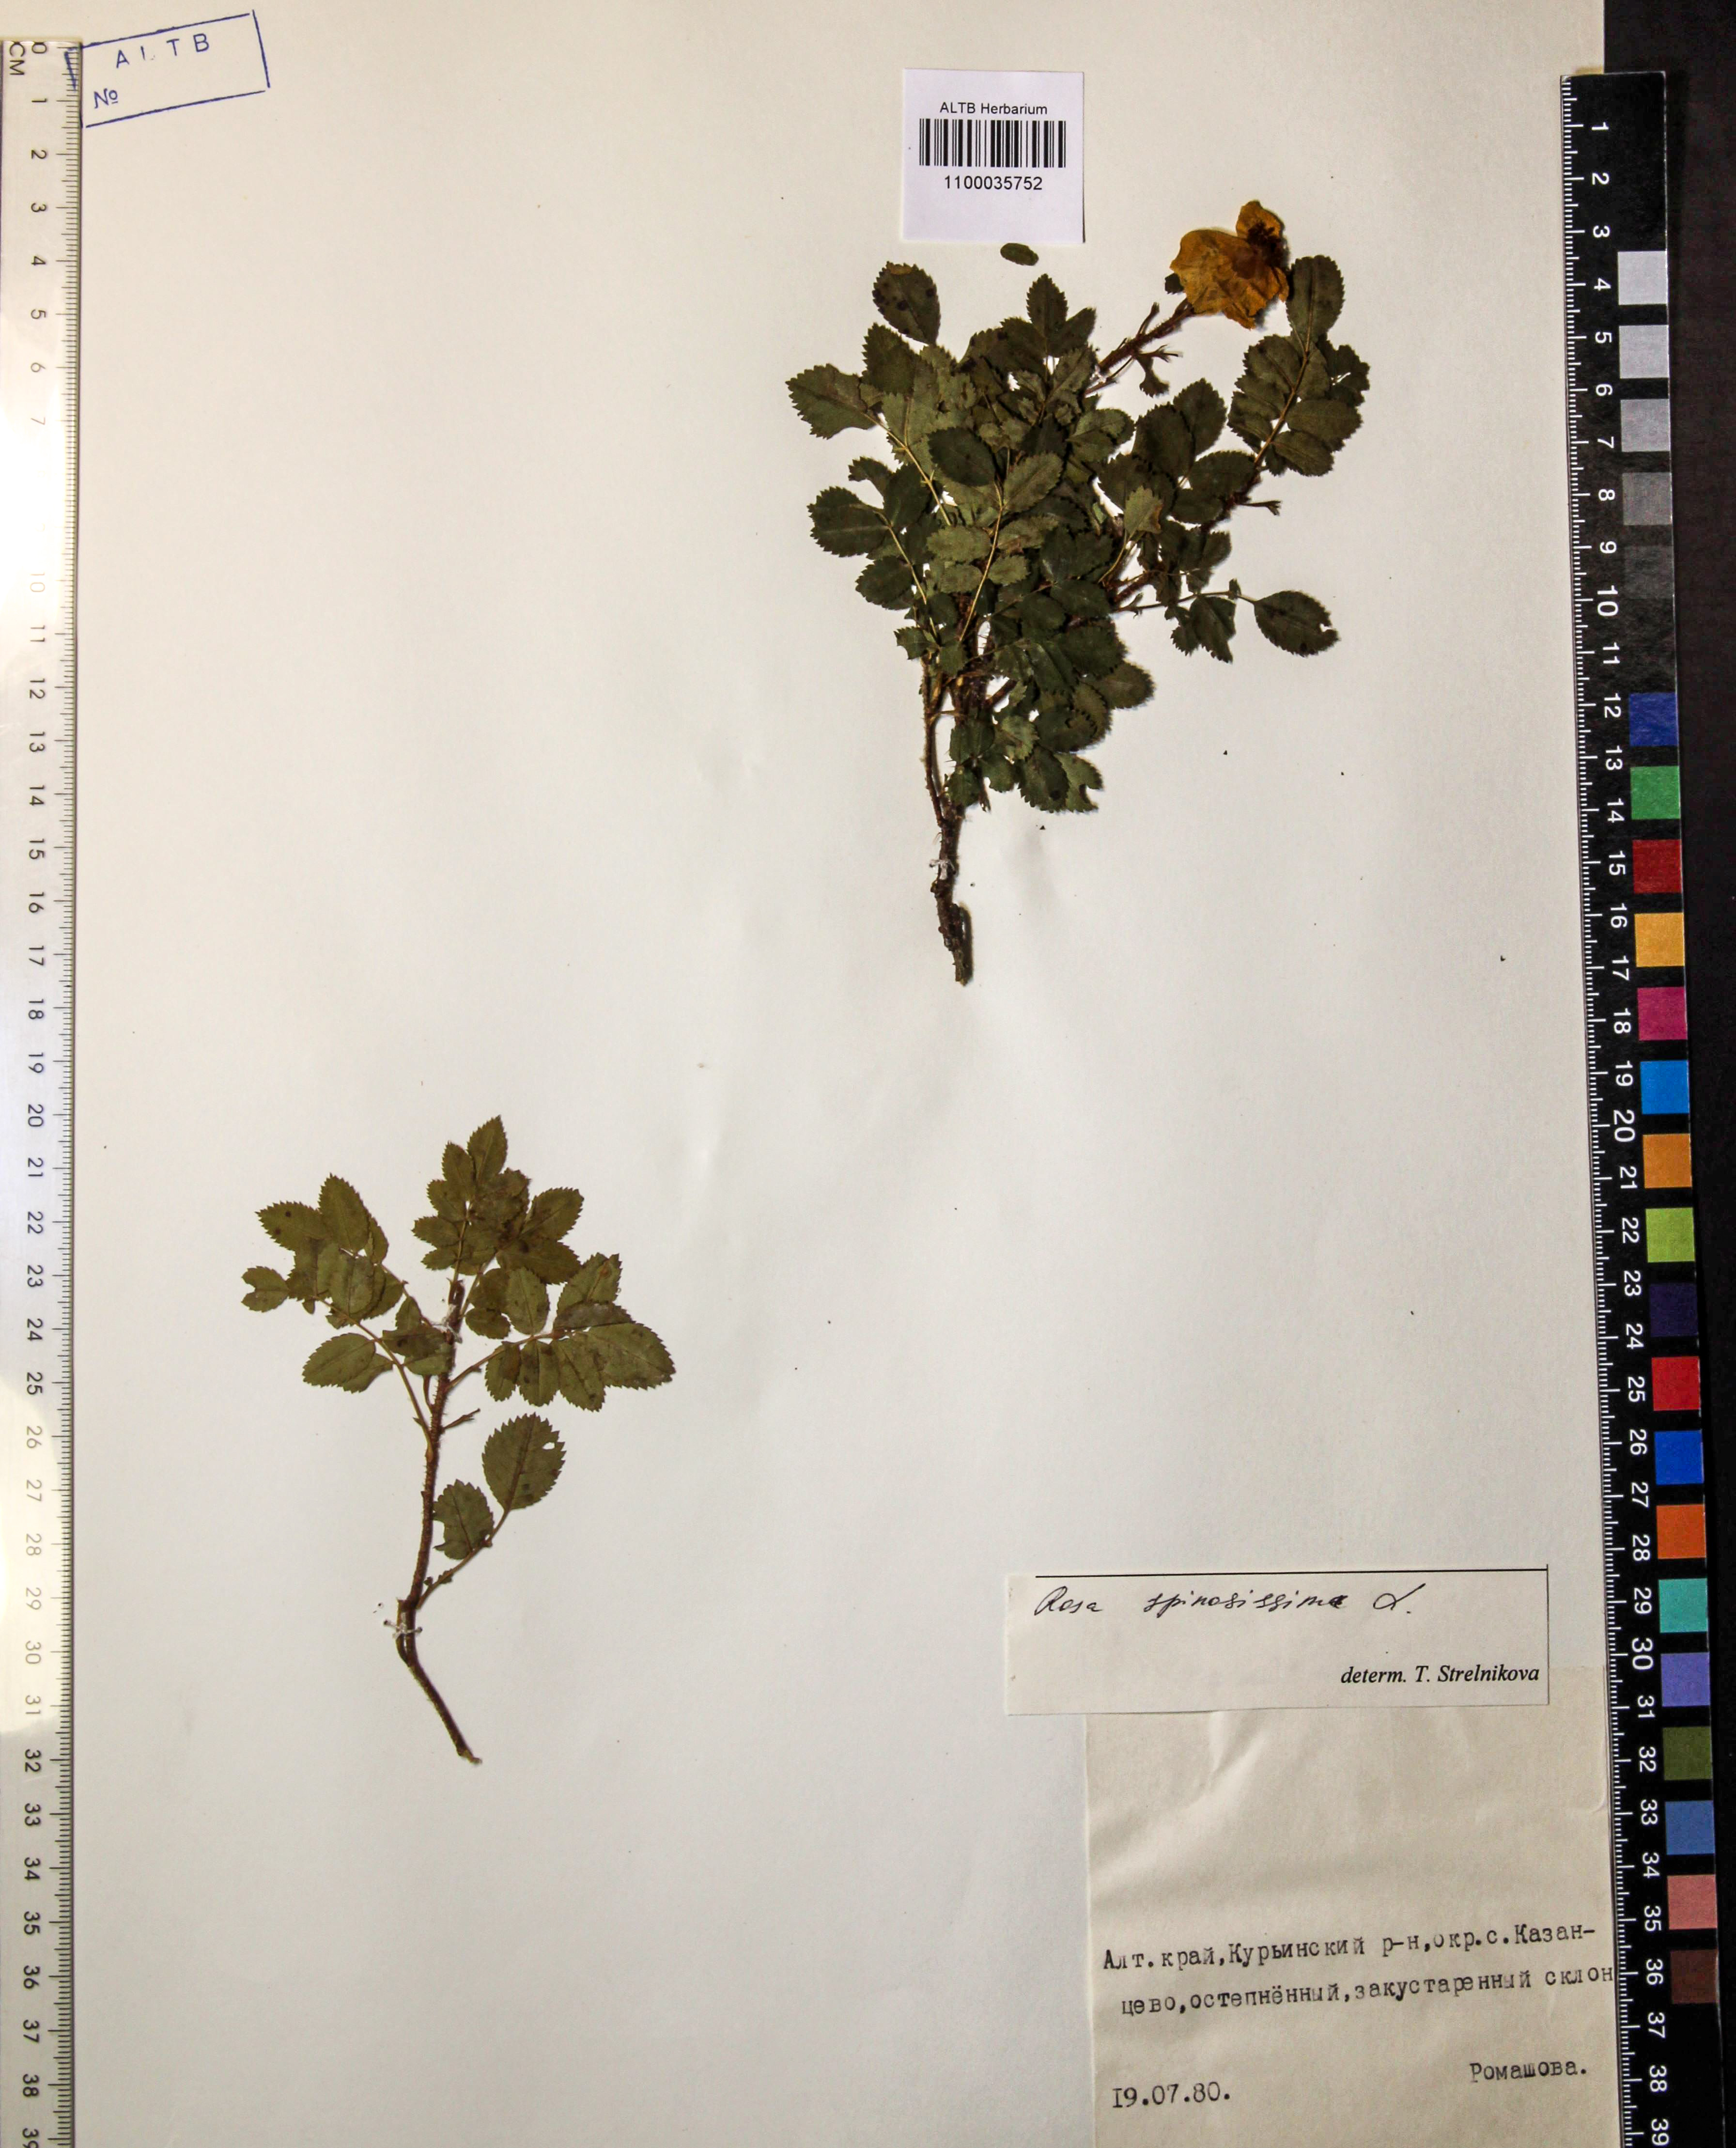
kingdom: Plantae
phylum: Tracheophyta
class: Magnoliopsida
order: Rosales
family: Rosaceae
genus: Rosa
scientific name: Rosa spinosissima
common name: Burnet rose
